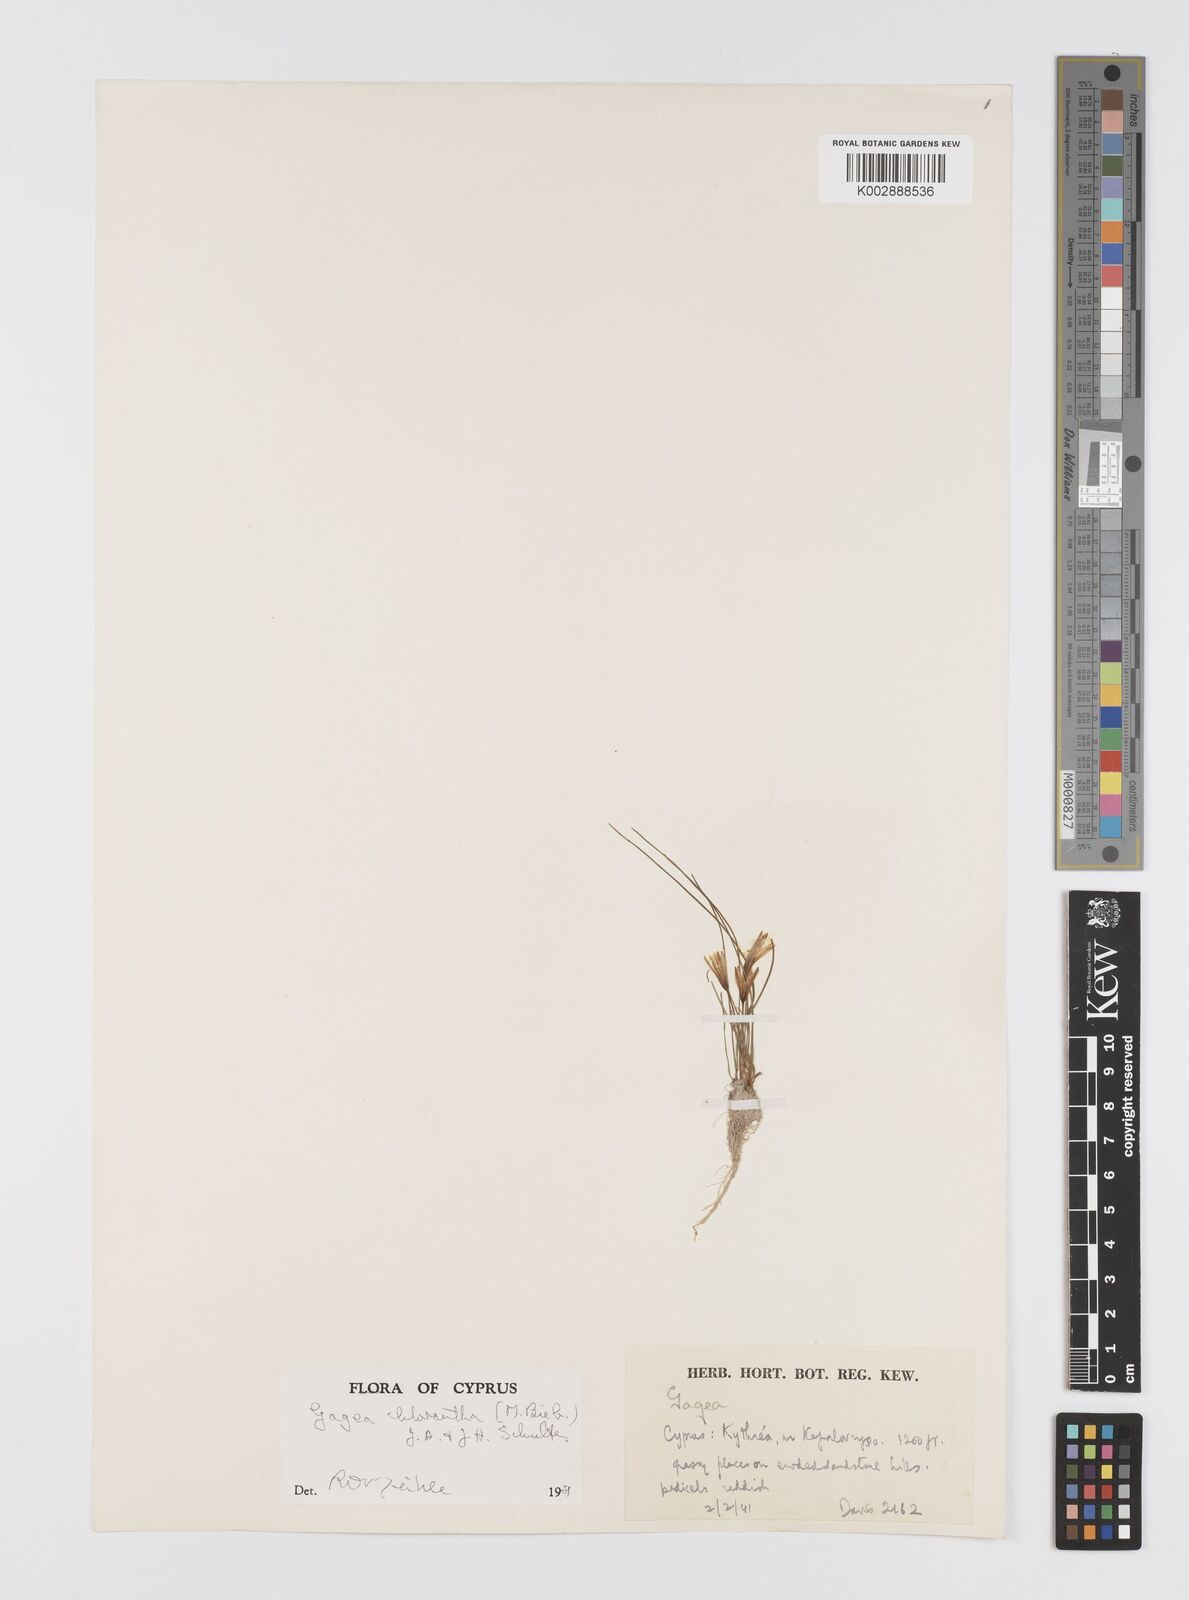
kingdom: Plantae
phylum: Tracheophyta
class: Liliopsida
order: Liliales
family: Liliaceae
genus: Gagea
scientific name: Gagea chlorantha
